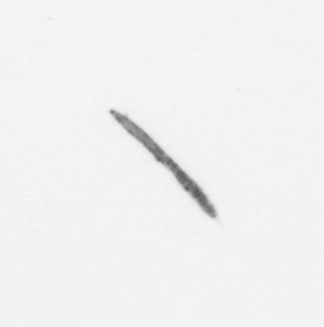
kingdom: Chromista
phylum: Ochrophyta
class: Bacillariophyceae
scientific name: Bacillariophyceae
